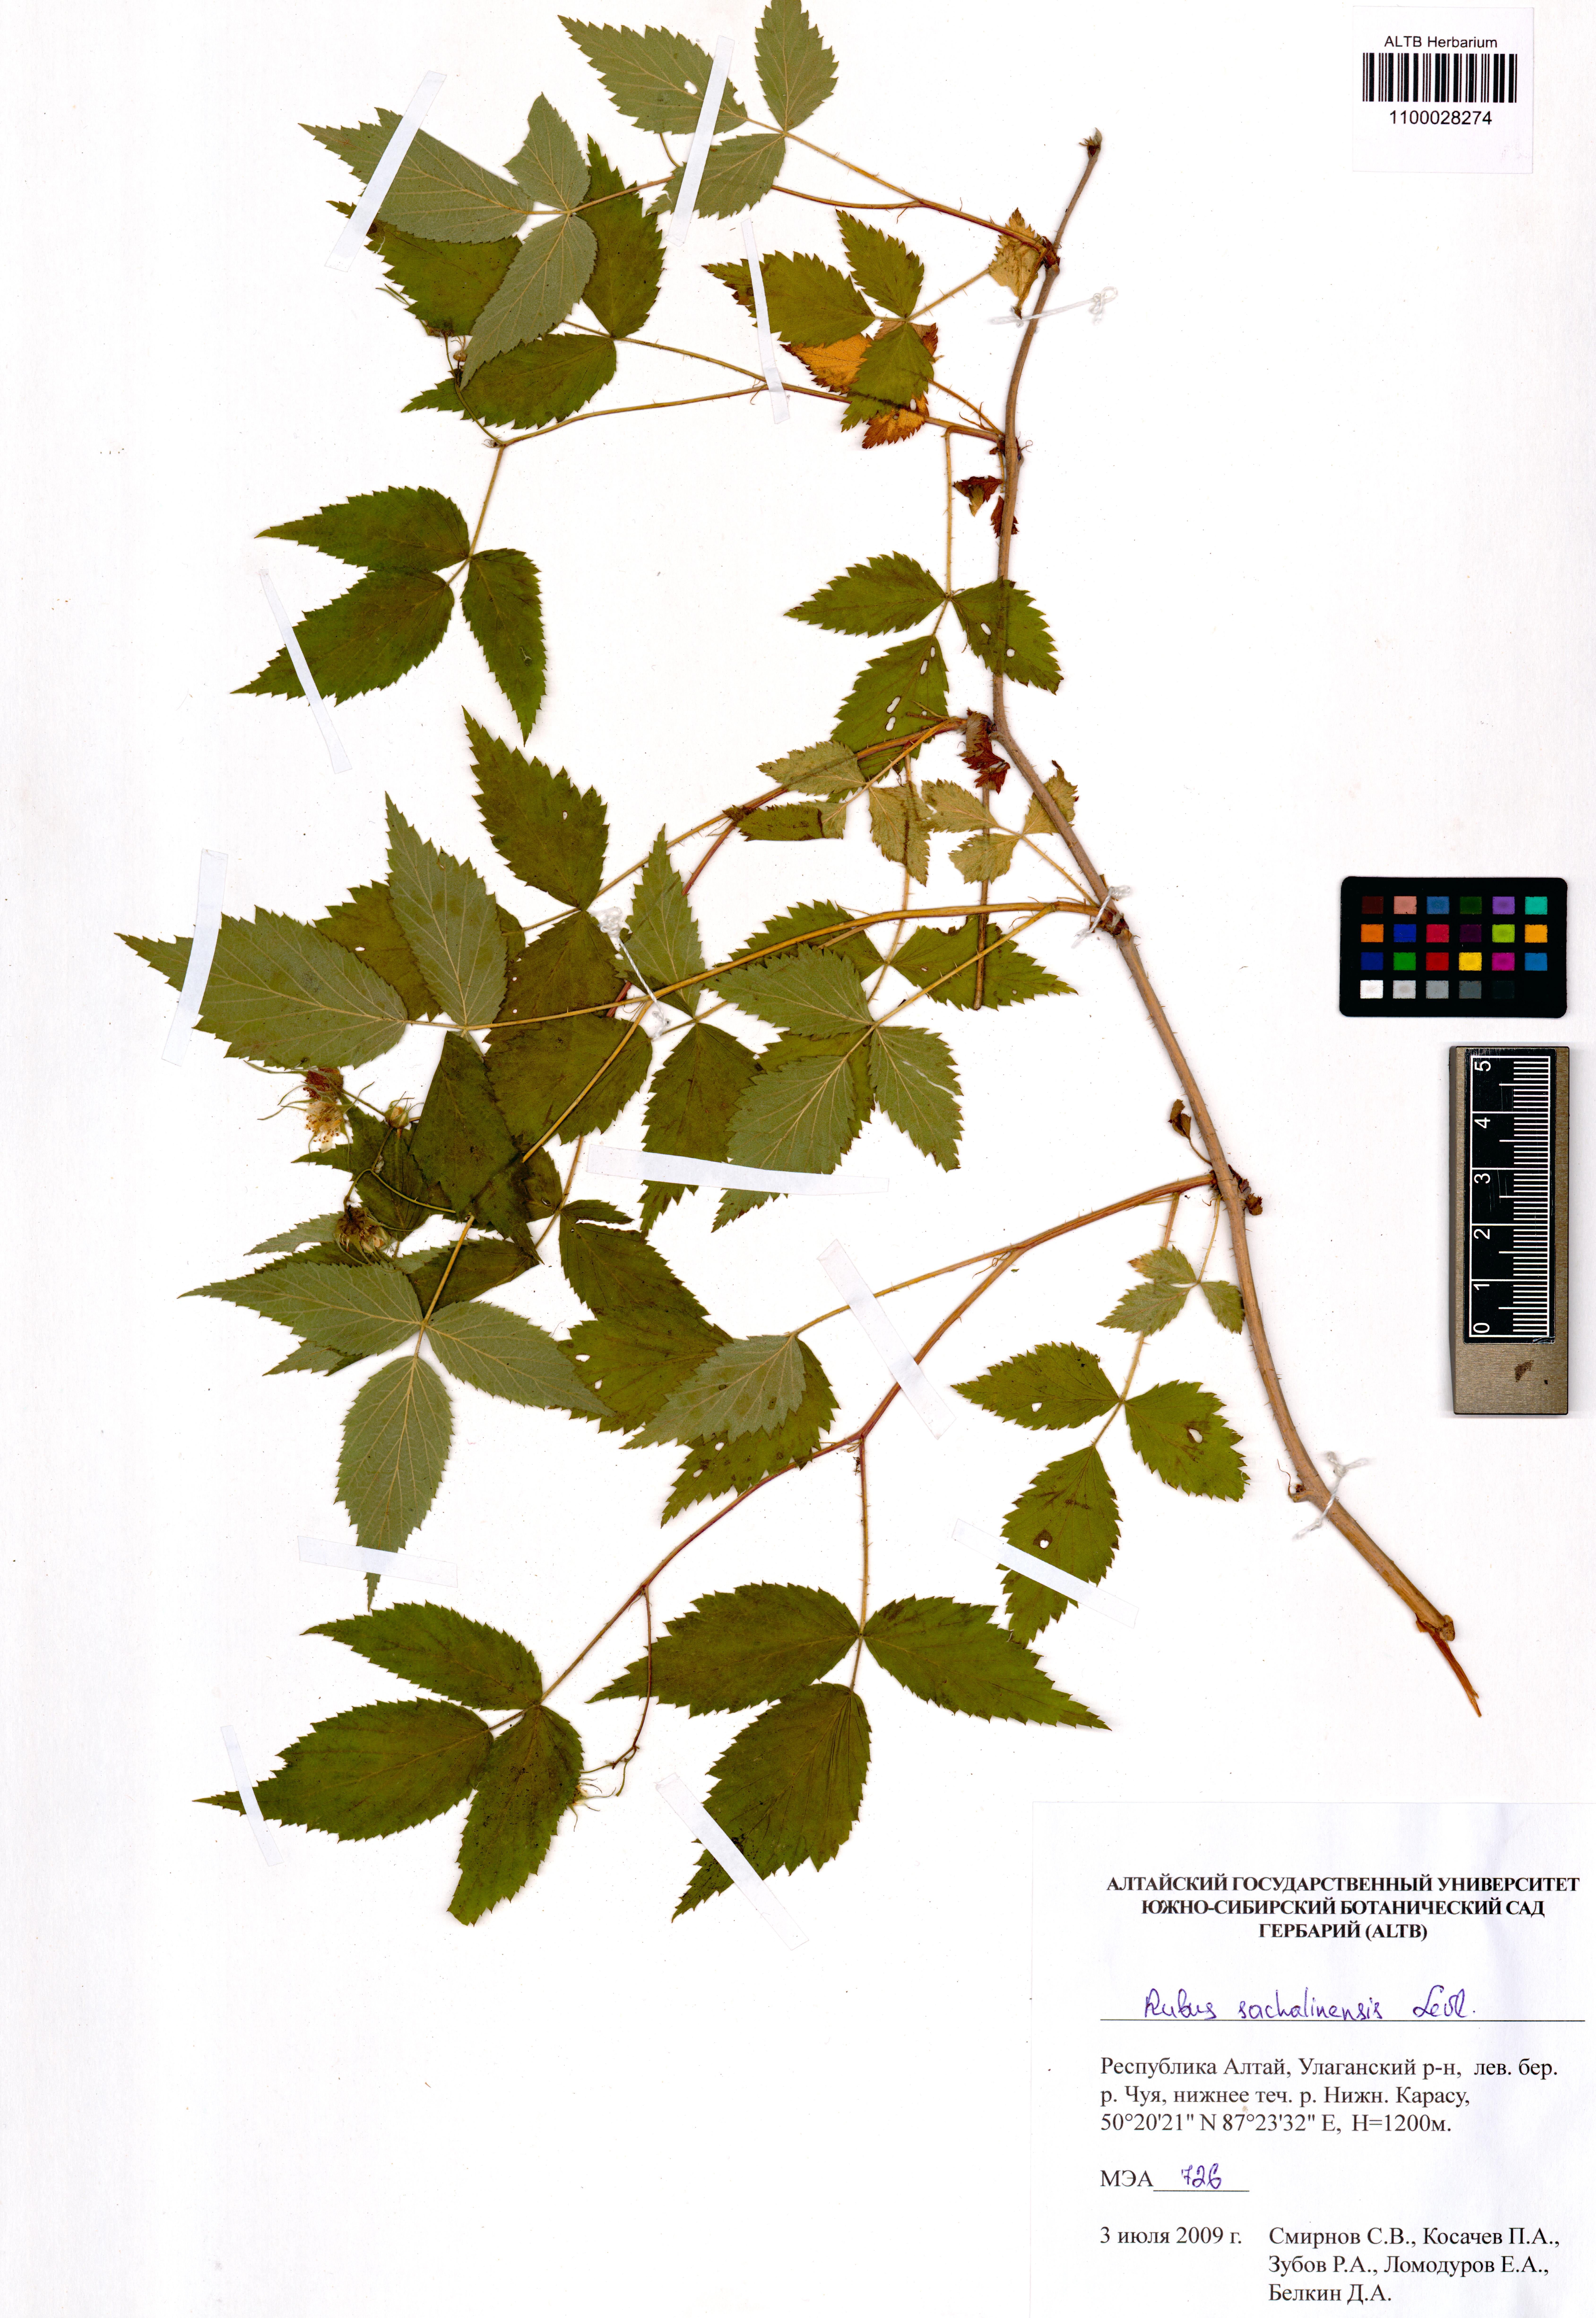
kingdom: Plantae
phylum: Tracheophyta
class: Magnoliopsida
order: Rosales
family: Rosaceae
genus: Rubus
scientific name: Rubus sachalinensis
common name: Red raspberry
